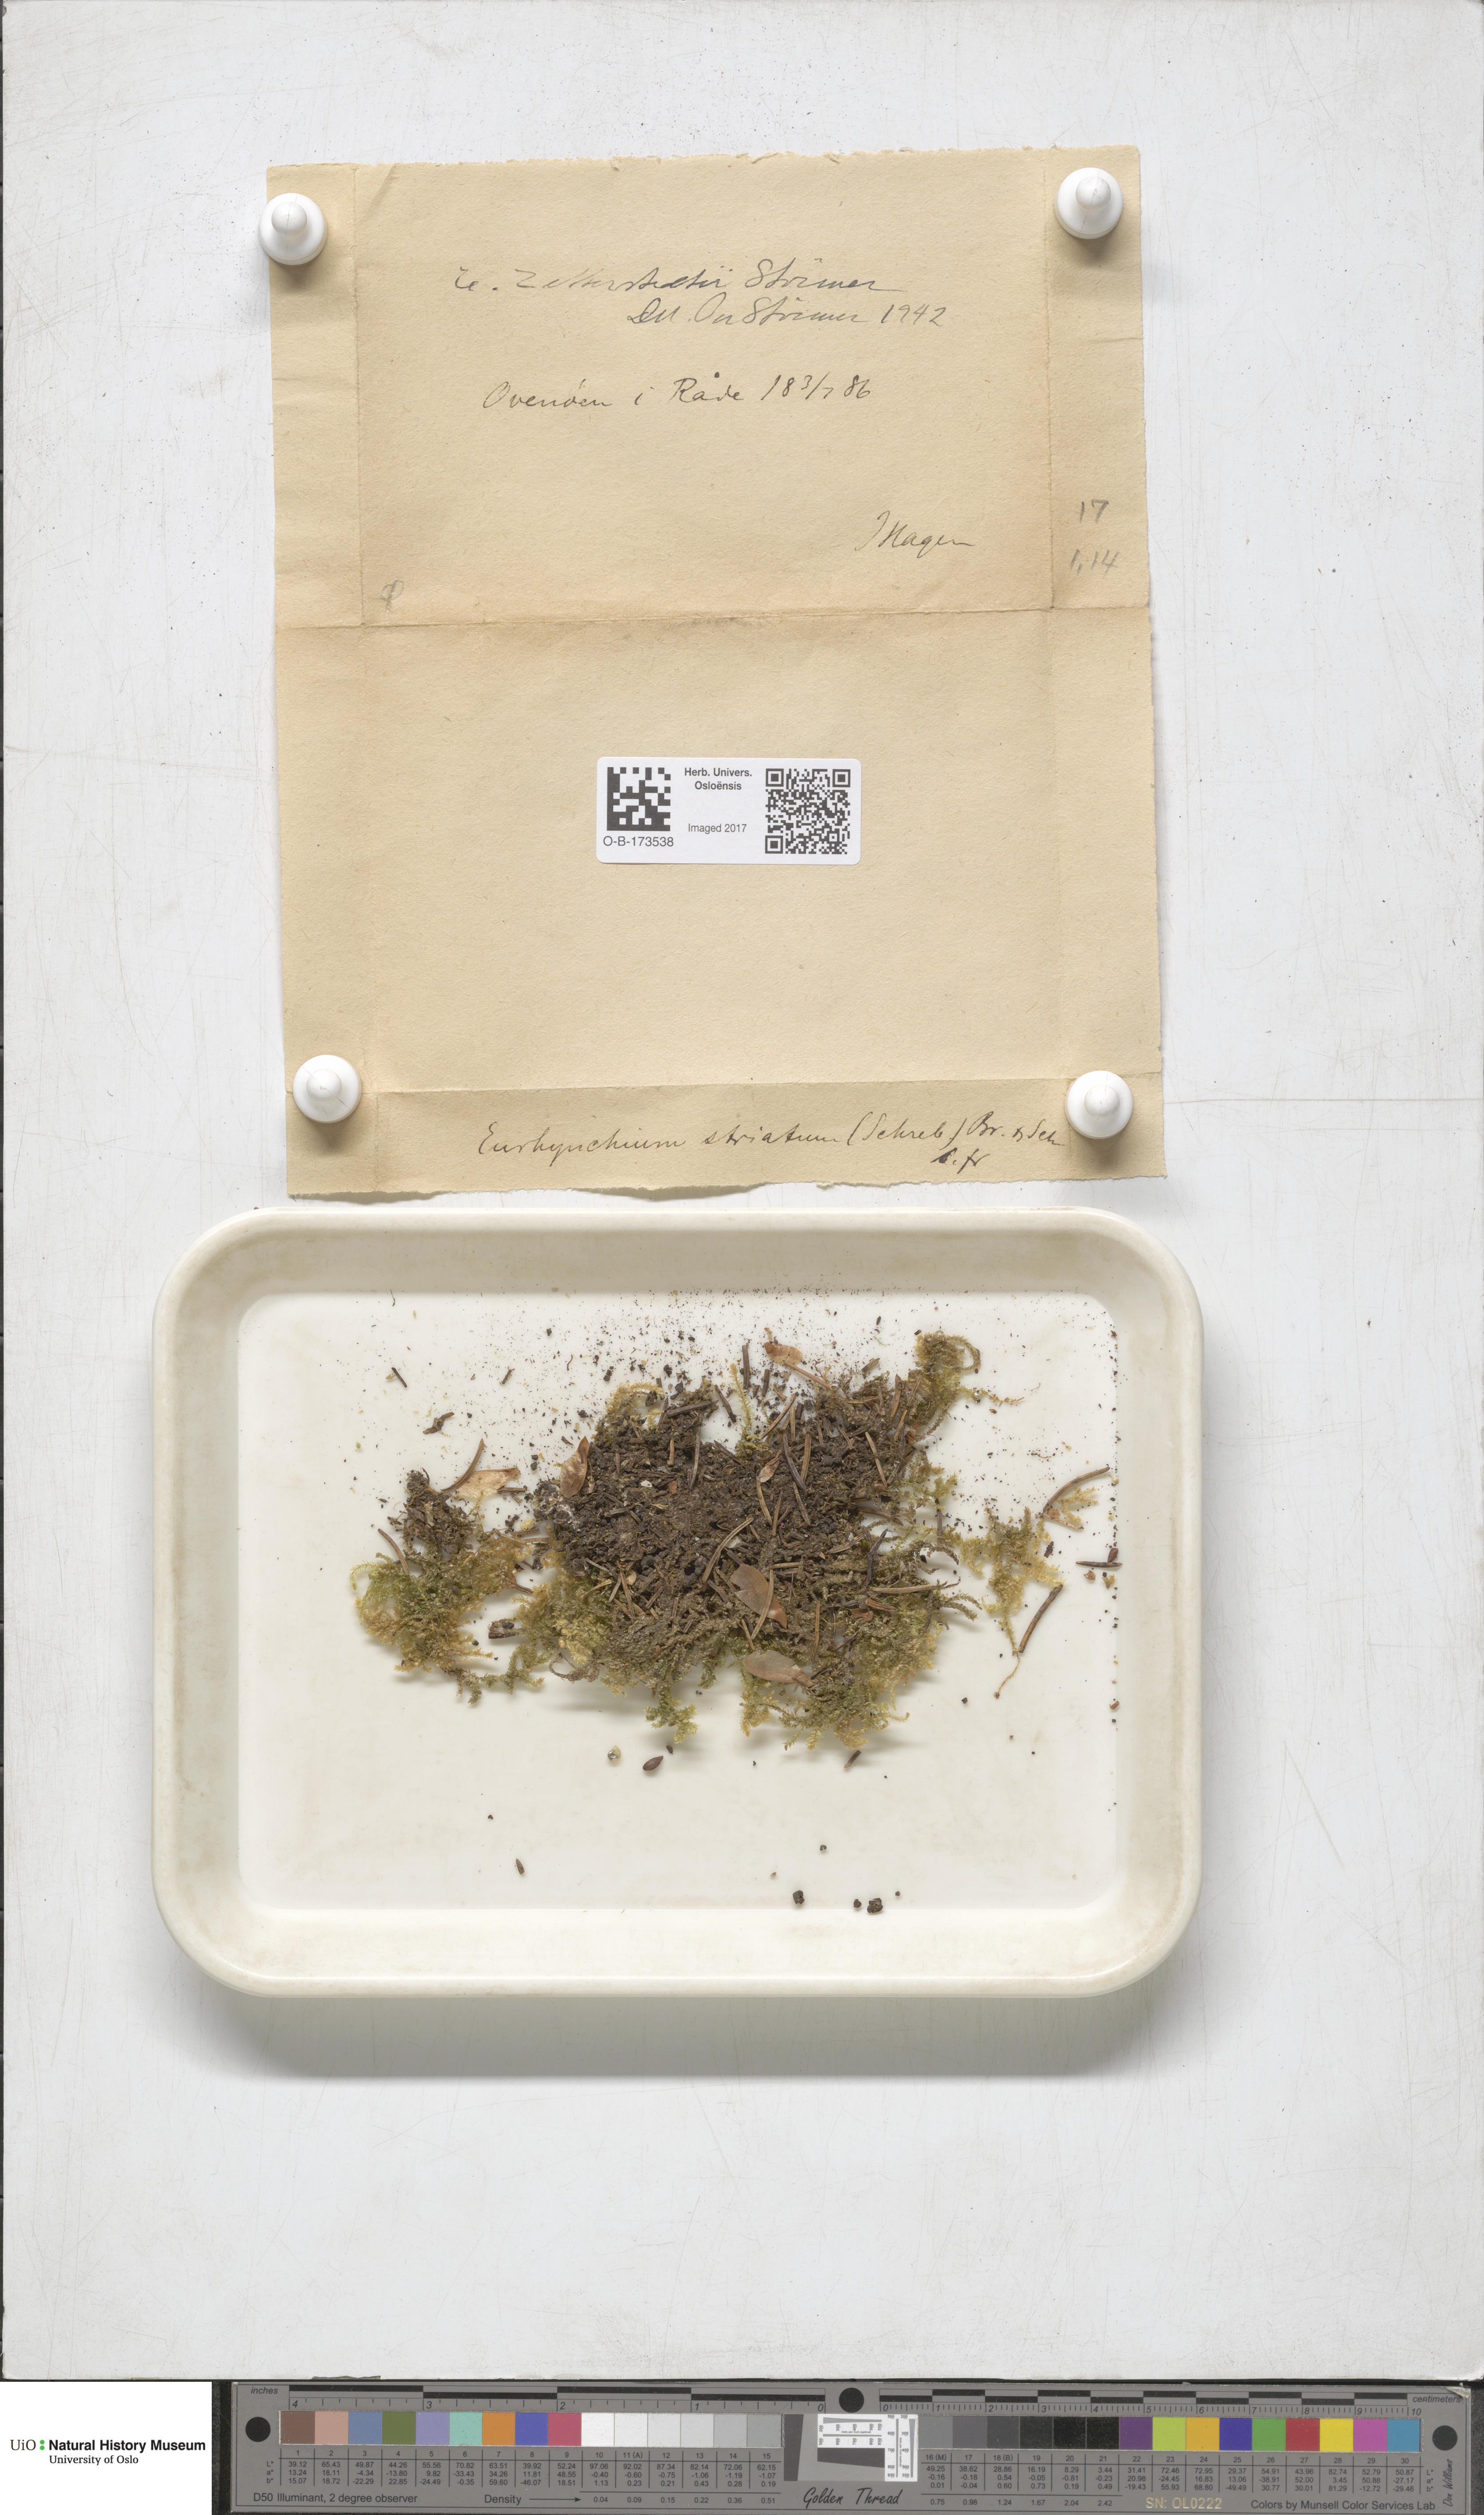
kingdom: Plantae
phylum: Bryophyta
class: Bryopsida
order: Hypnales
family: Brachytheciaceae
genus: Eurhynchium
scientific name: Eurhynchium angustirete
